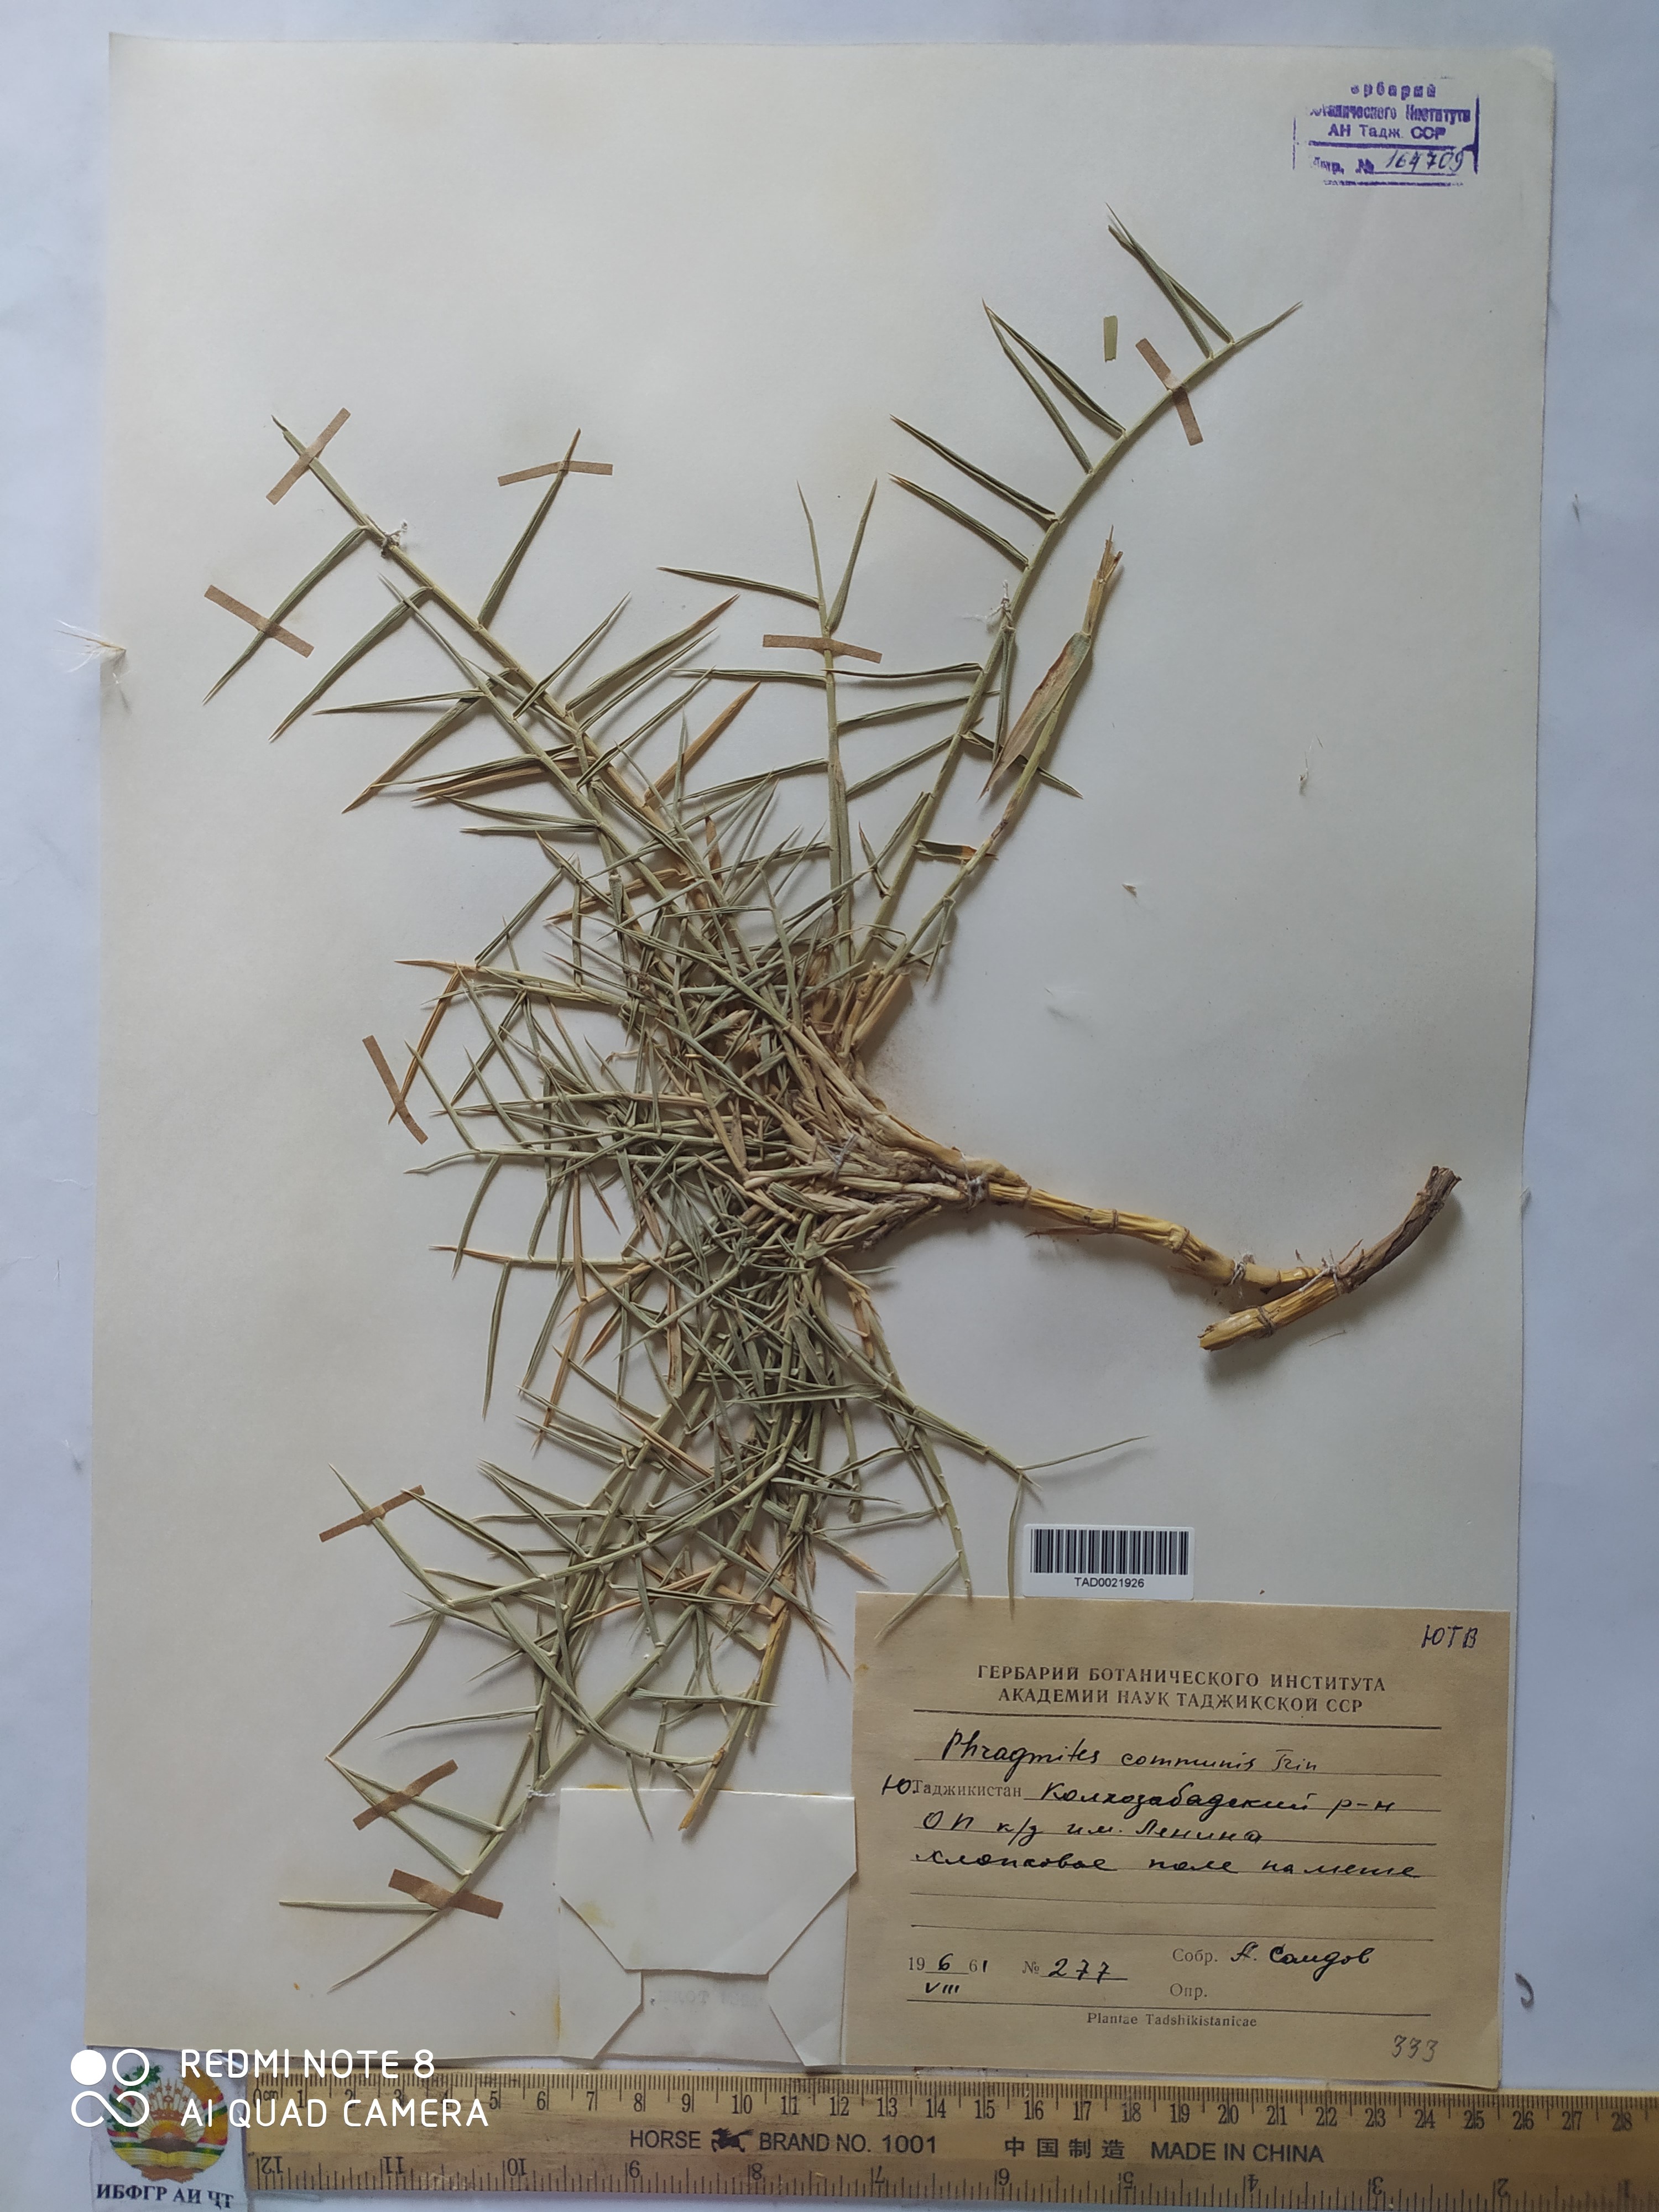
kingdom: Plantae
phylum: Tracheophyta
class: Liliopsida
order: Poales
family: Poaceae
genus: Phragmites
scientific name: Phragmites australis
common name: Common reed
